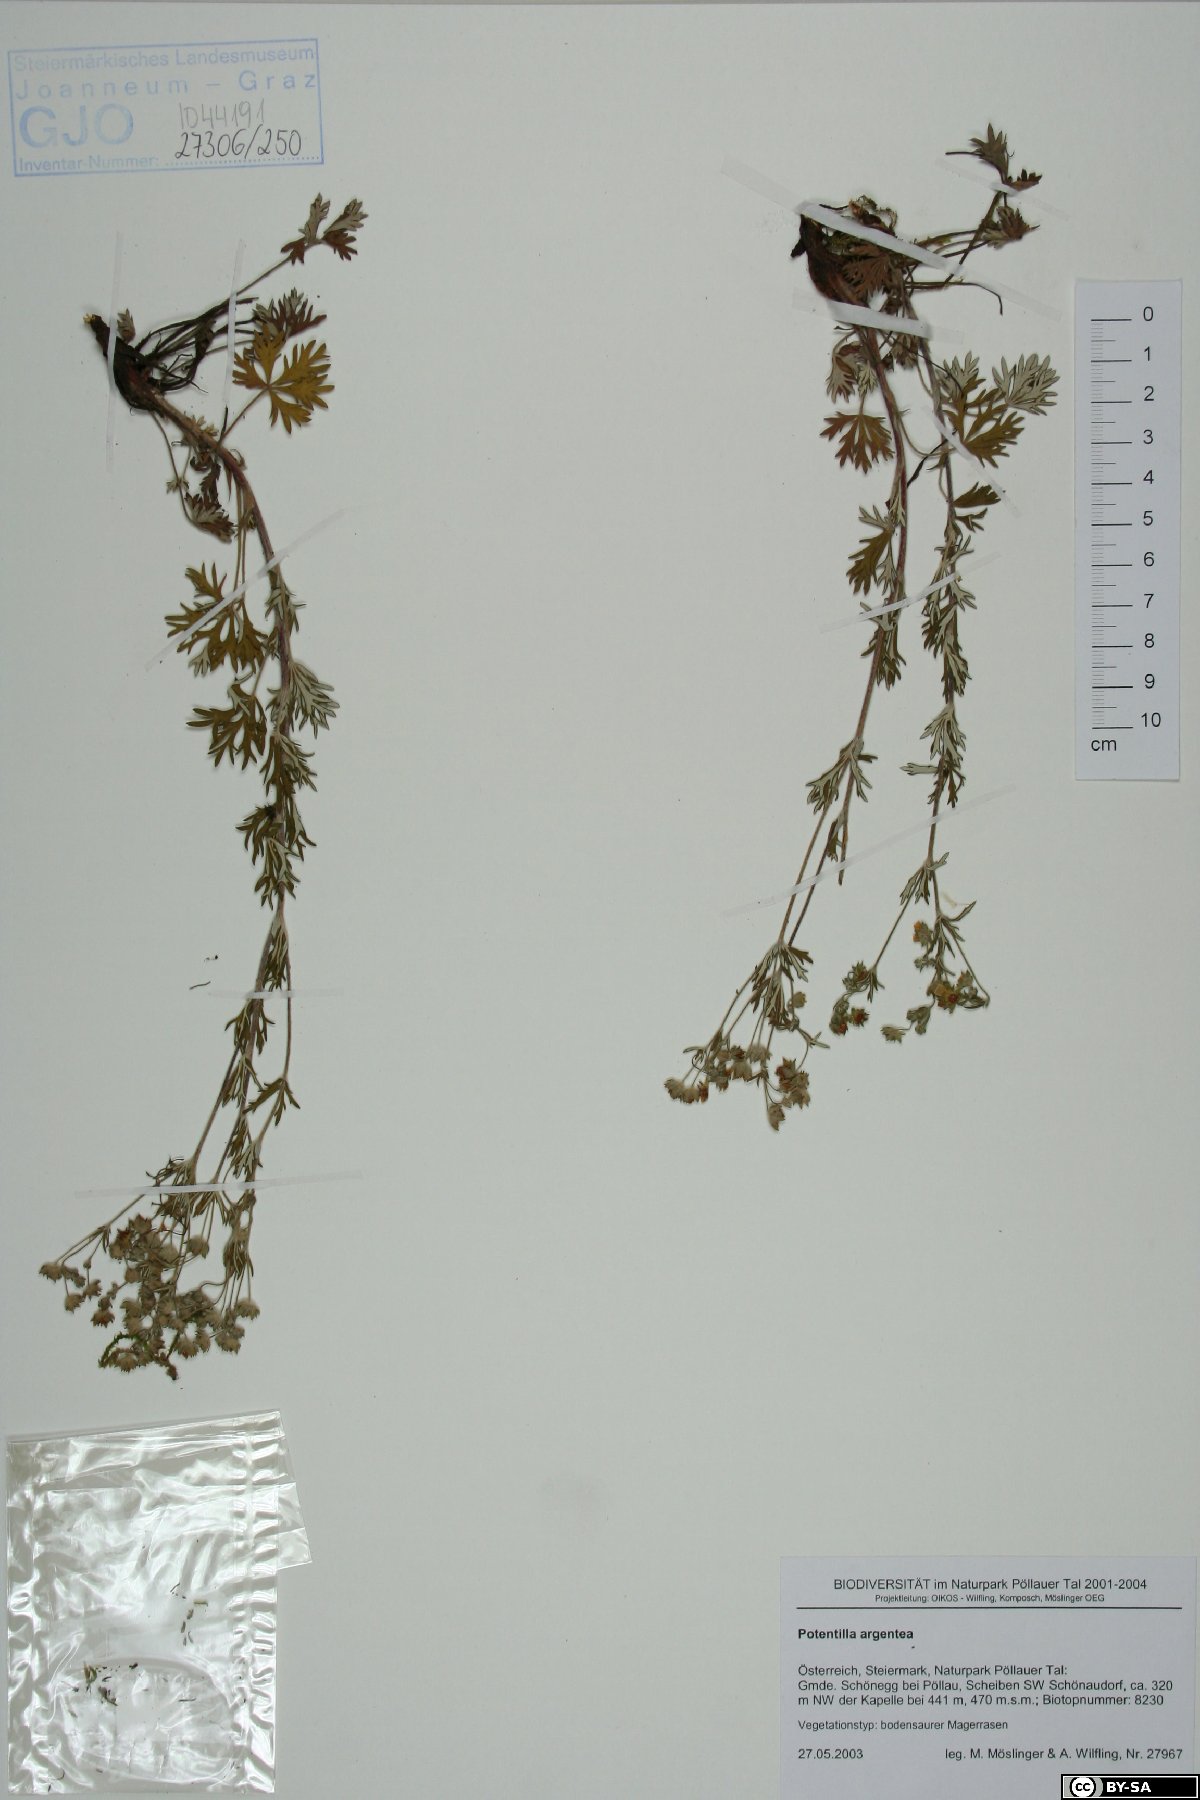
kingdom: Plantae
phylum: Tracheophyta
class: Magnoliopsida
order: Rosales
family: Rosaceae
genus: Potentilla
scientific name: Potentilla argentea
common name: Hoary cinquefoil
